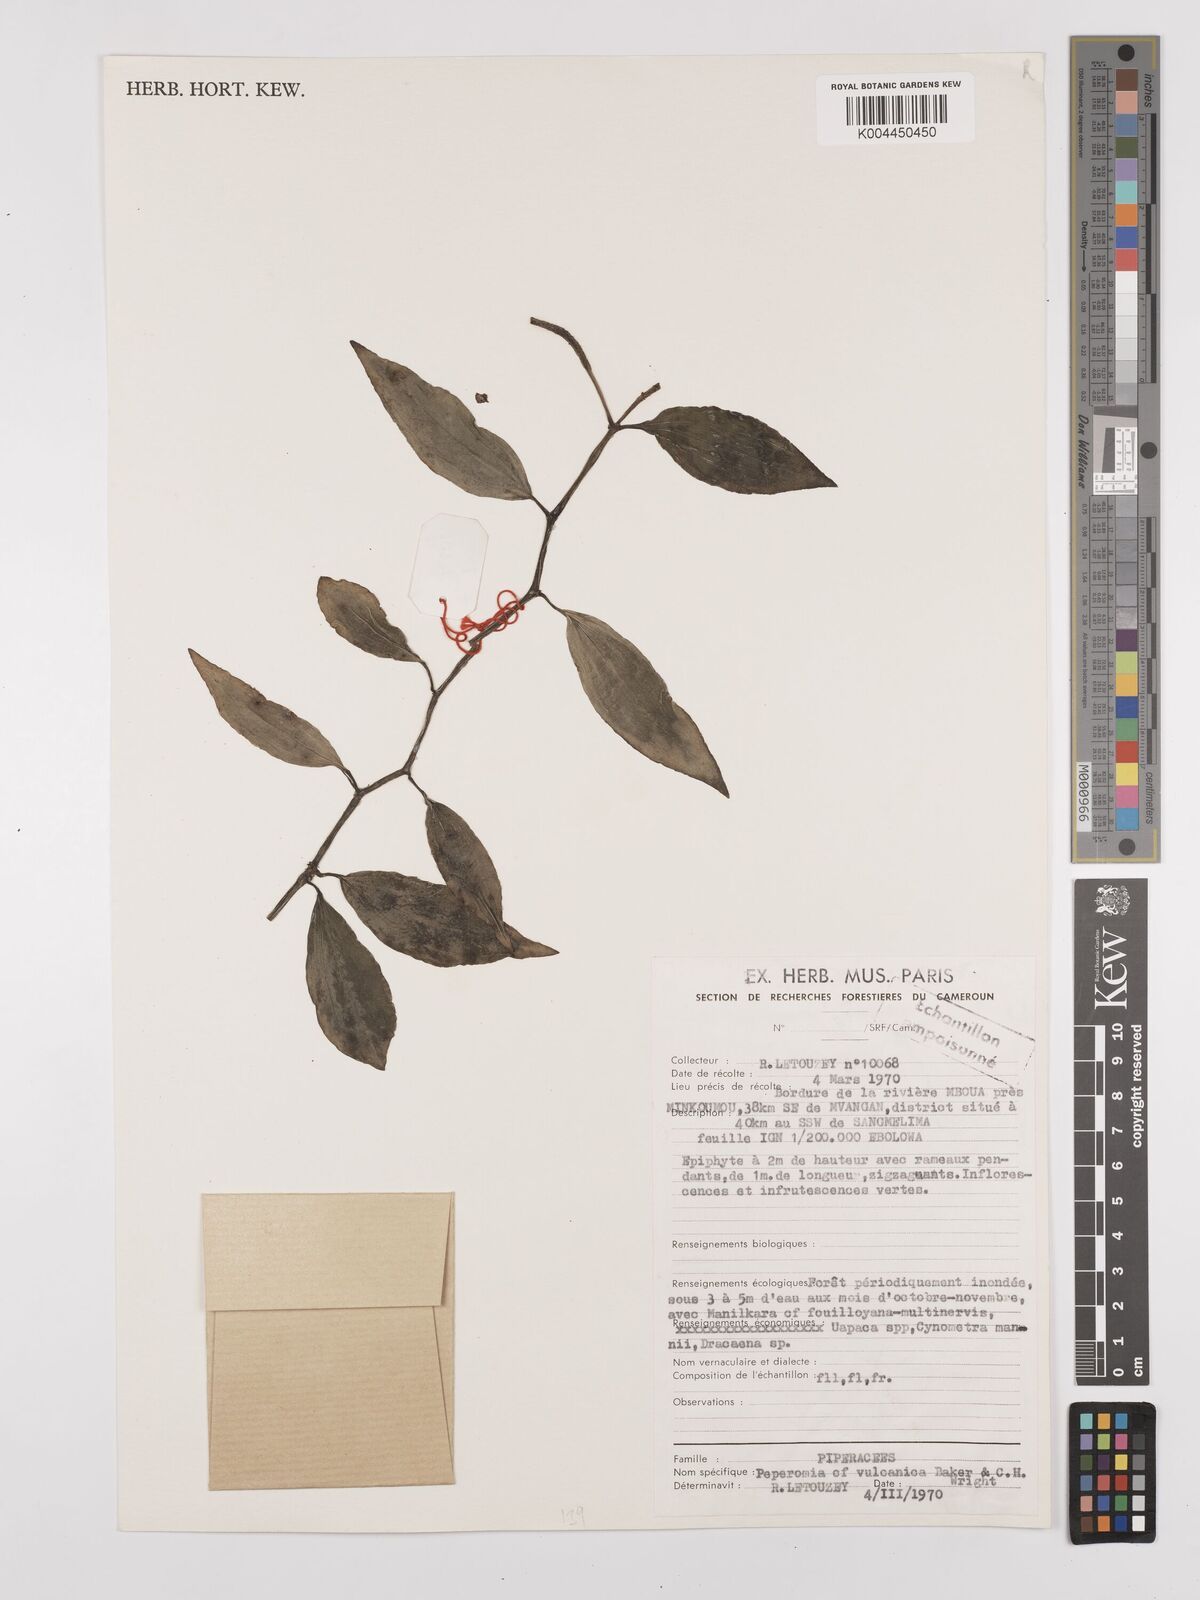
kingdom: Plantae
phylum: Tracheophyta
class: Magnoliopsida
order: Piperales
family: Piperaceae
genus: Peperomia
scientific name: Peperomia
